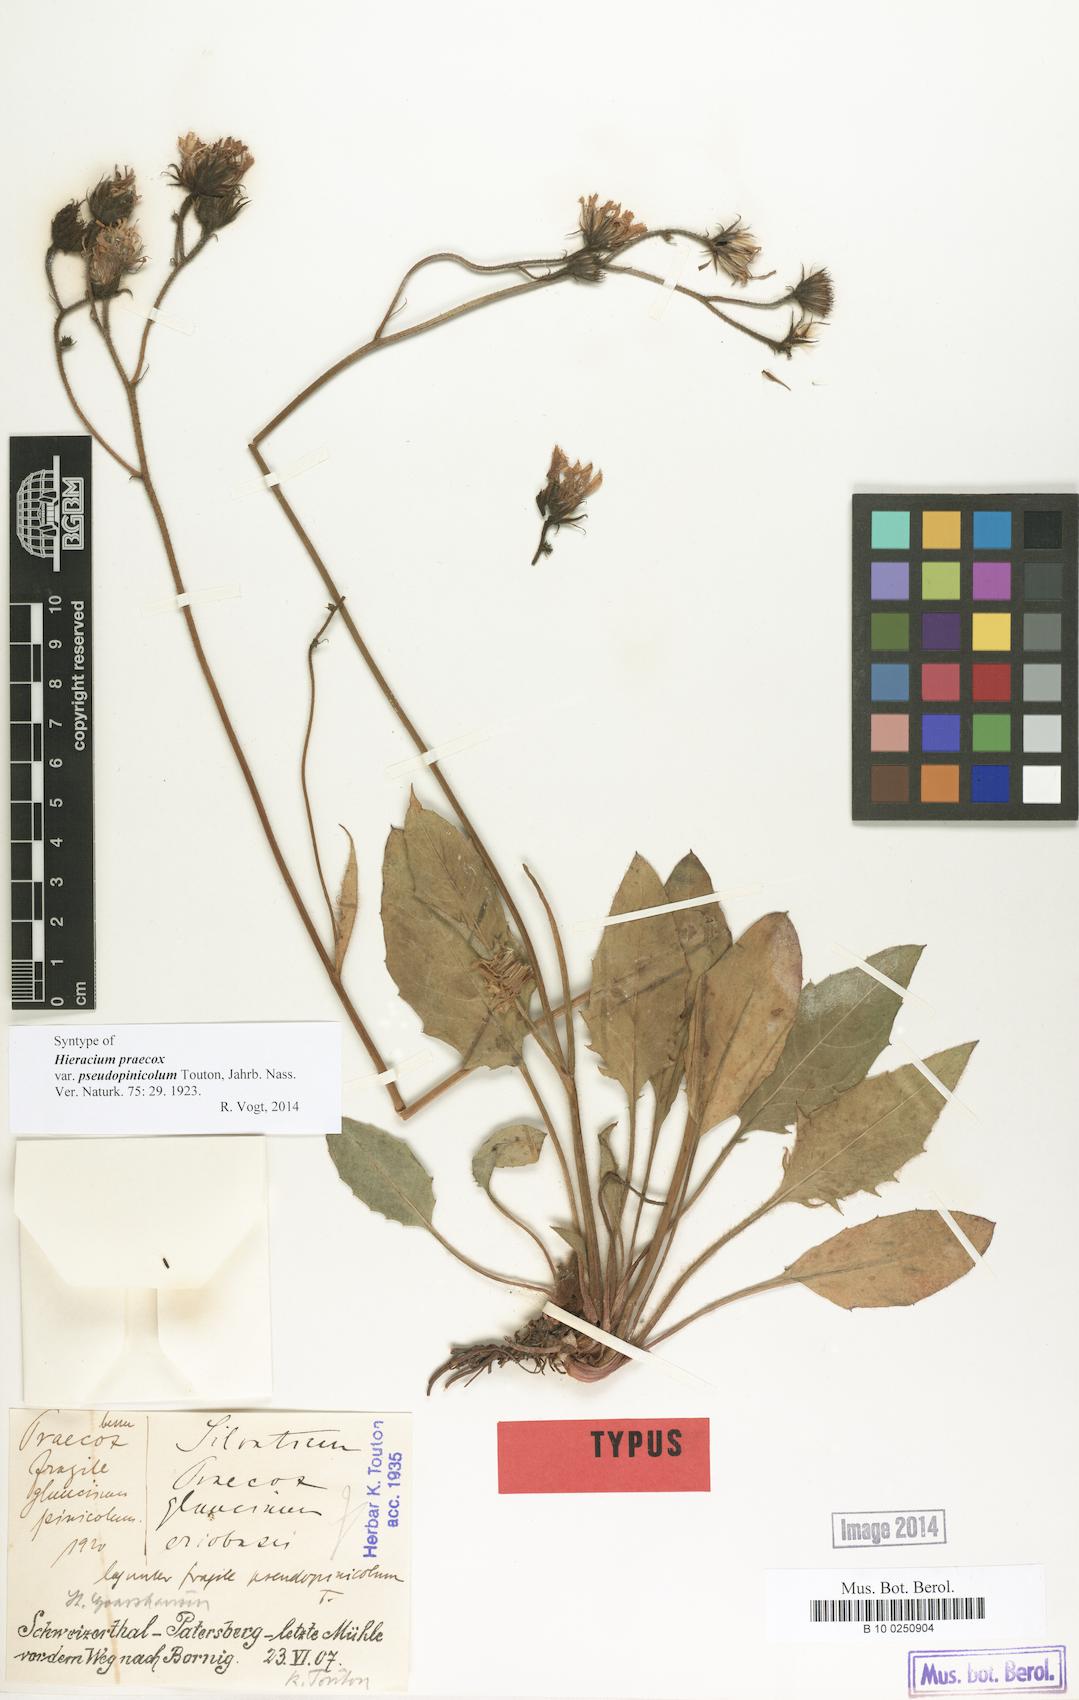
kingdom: Plantae
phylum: Tracheophyta
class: Magnoliopsida
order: Asterales
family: Asteraceae
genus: Hieracium
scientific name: Hieracium praecox
